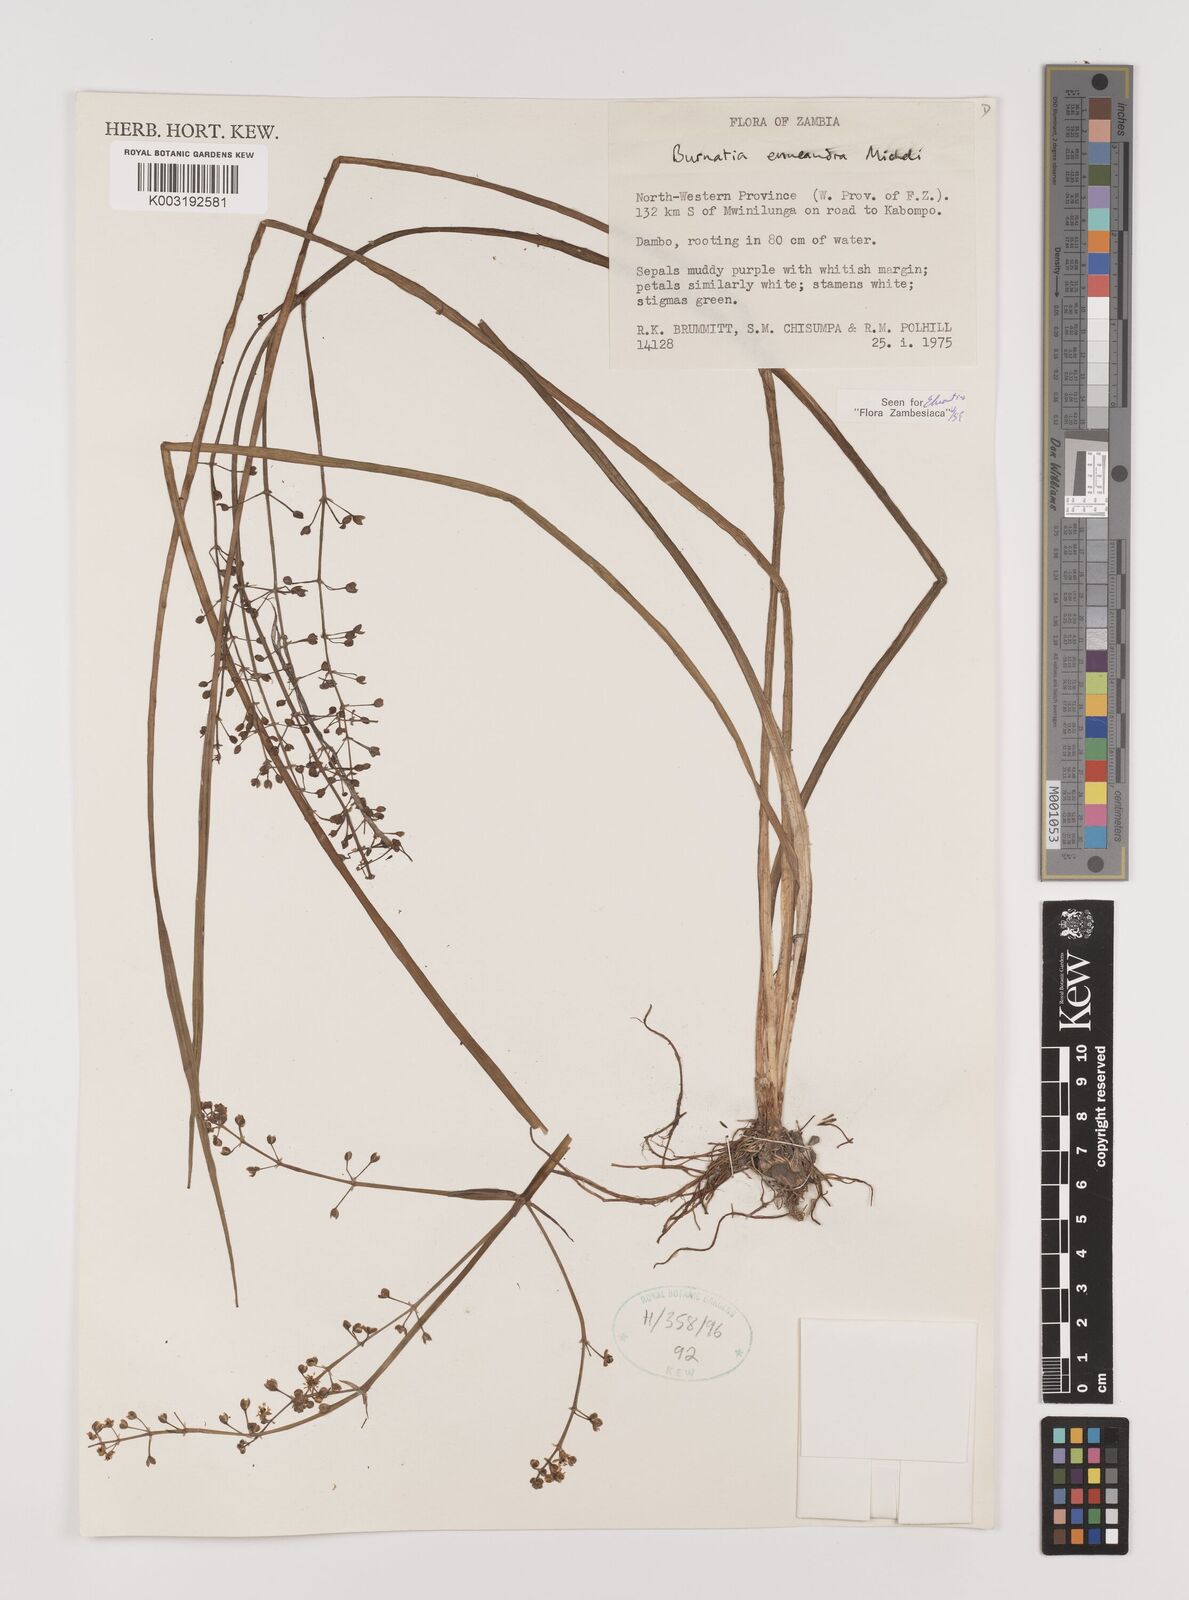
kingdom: Plantae
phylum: Tracheophyta
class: Liliopsida
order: Alismatales
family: Alismataceae
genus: Burnatia
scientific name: Burnatia enneandra
